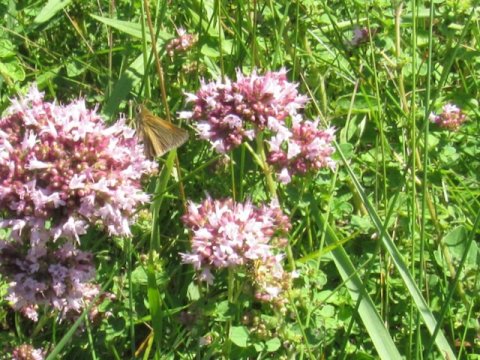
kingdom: Animalia
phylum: Arthropoda
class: Insecta
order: Lepidoptera
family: Hesperiidae
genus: Polites
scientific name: Polites themistocles
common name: Tawny-edged Skipper
